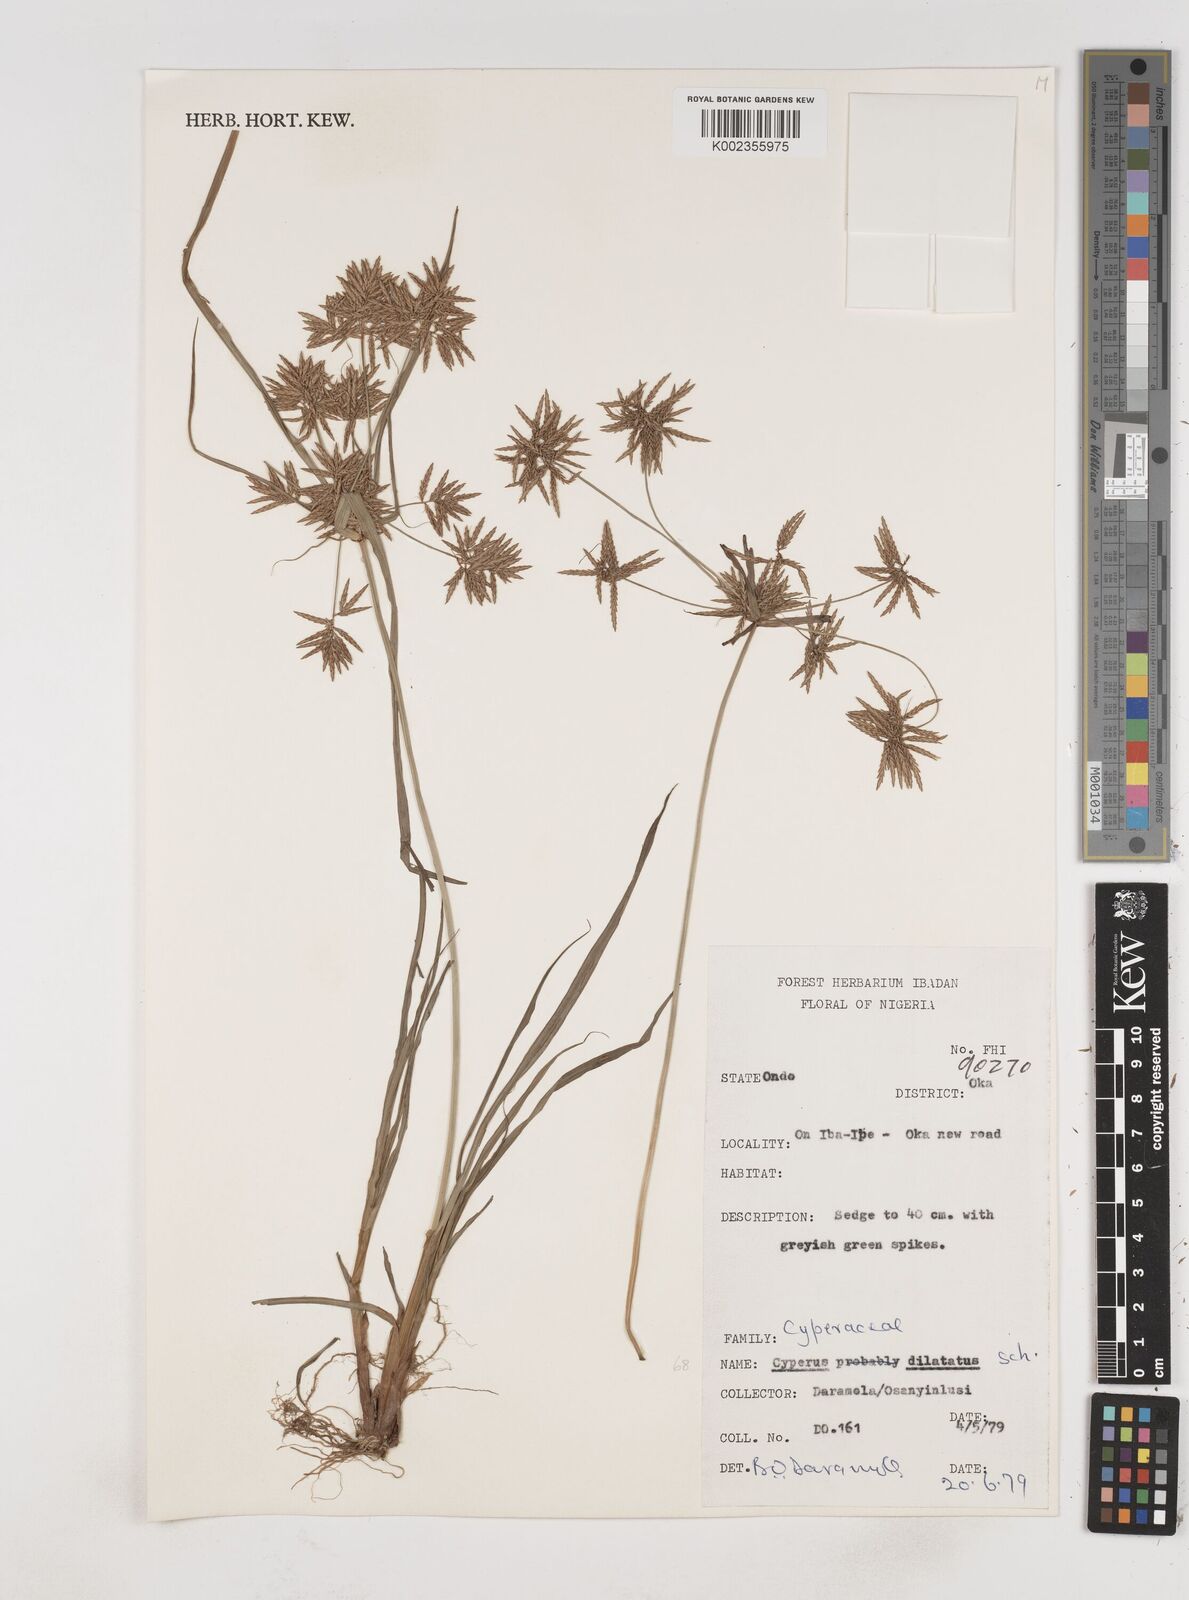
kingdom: Plantae
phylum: Tracheophyta
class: Liliopsida
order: Poales
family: Cyperaceae
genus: Cyperus
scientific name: Cyperus dilatatus
